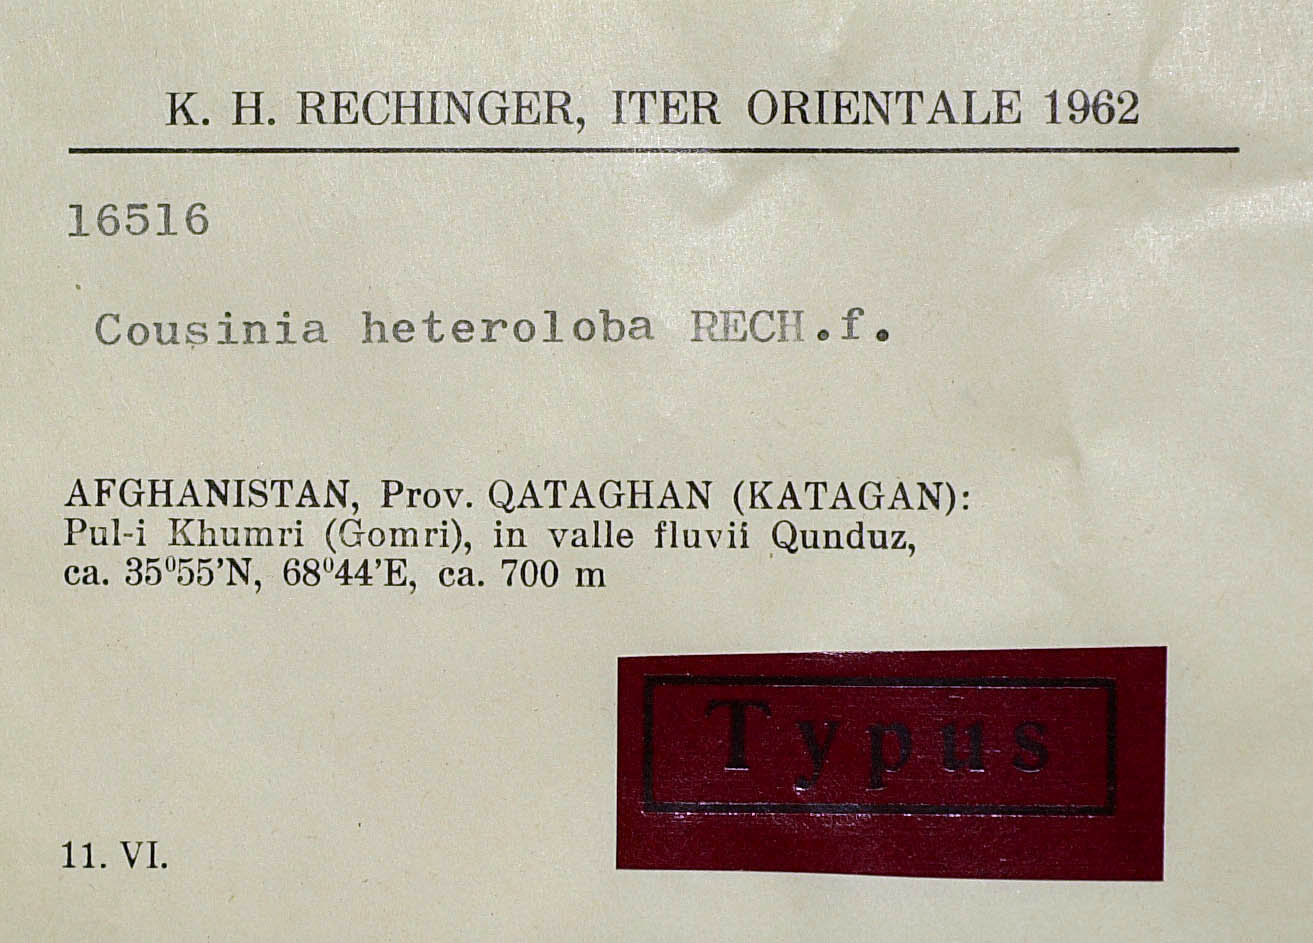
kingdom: Plantae
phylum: Tracheophyta
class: Magnoliopsida
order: Asterales
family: Asteraceae
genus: Cousinia
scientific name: Cousinia heteroloba
